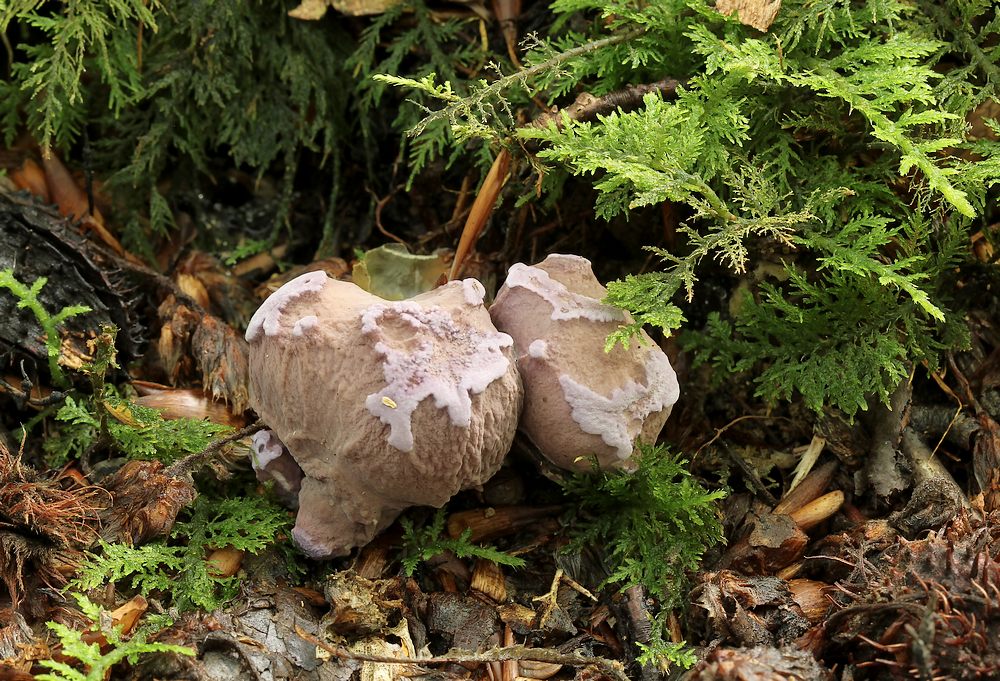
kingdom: Fungi
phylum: Basidiomycota
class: Agaricomycetes
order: Gomphales
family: Gomphaceae
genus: Gomphus
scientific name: Gomphus clavatus
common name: køllekantarel
